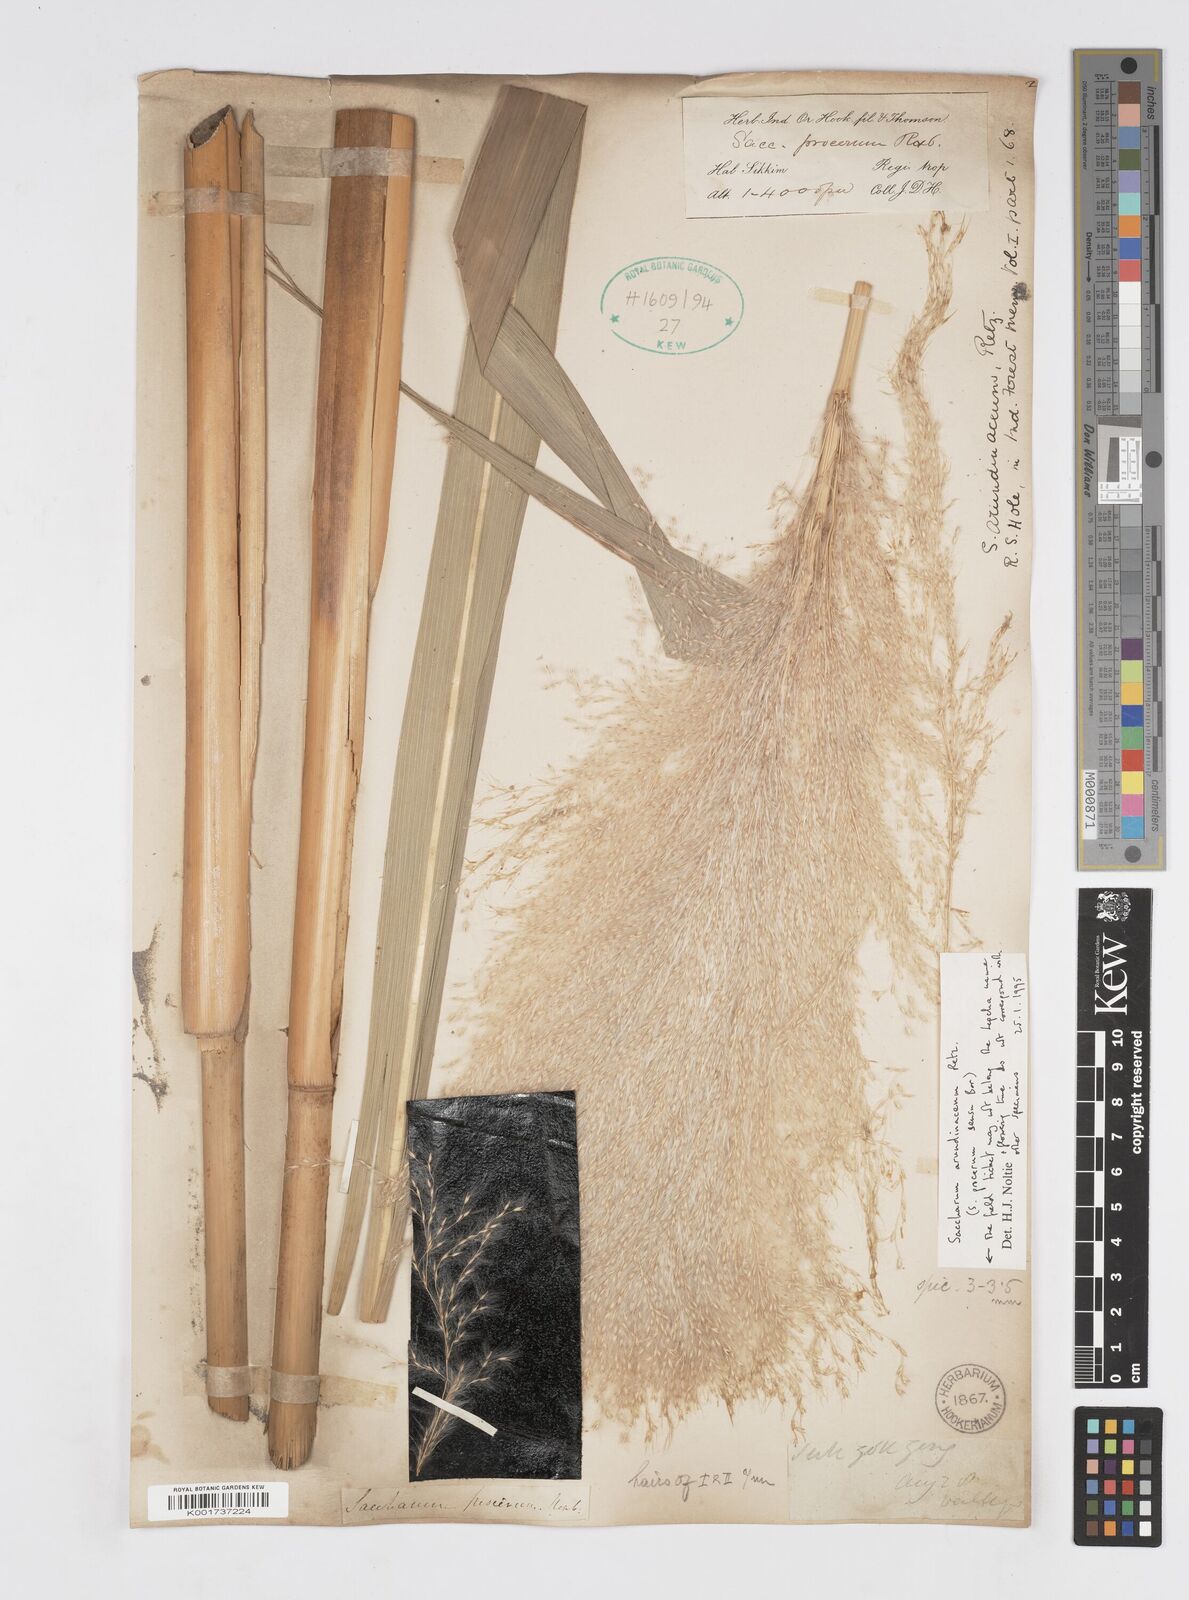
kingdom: Plantae
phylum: Tracheophyta
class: Liliopsida
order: Poales
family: Poaceae
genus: Tripidium
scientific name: Tripidium arundinaceum
